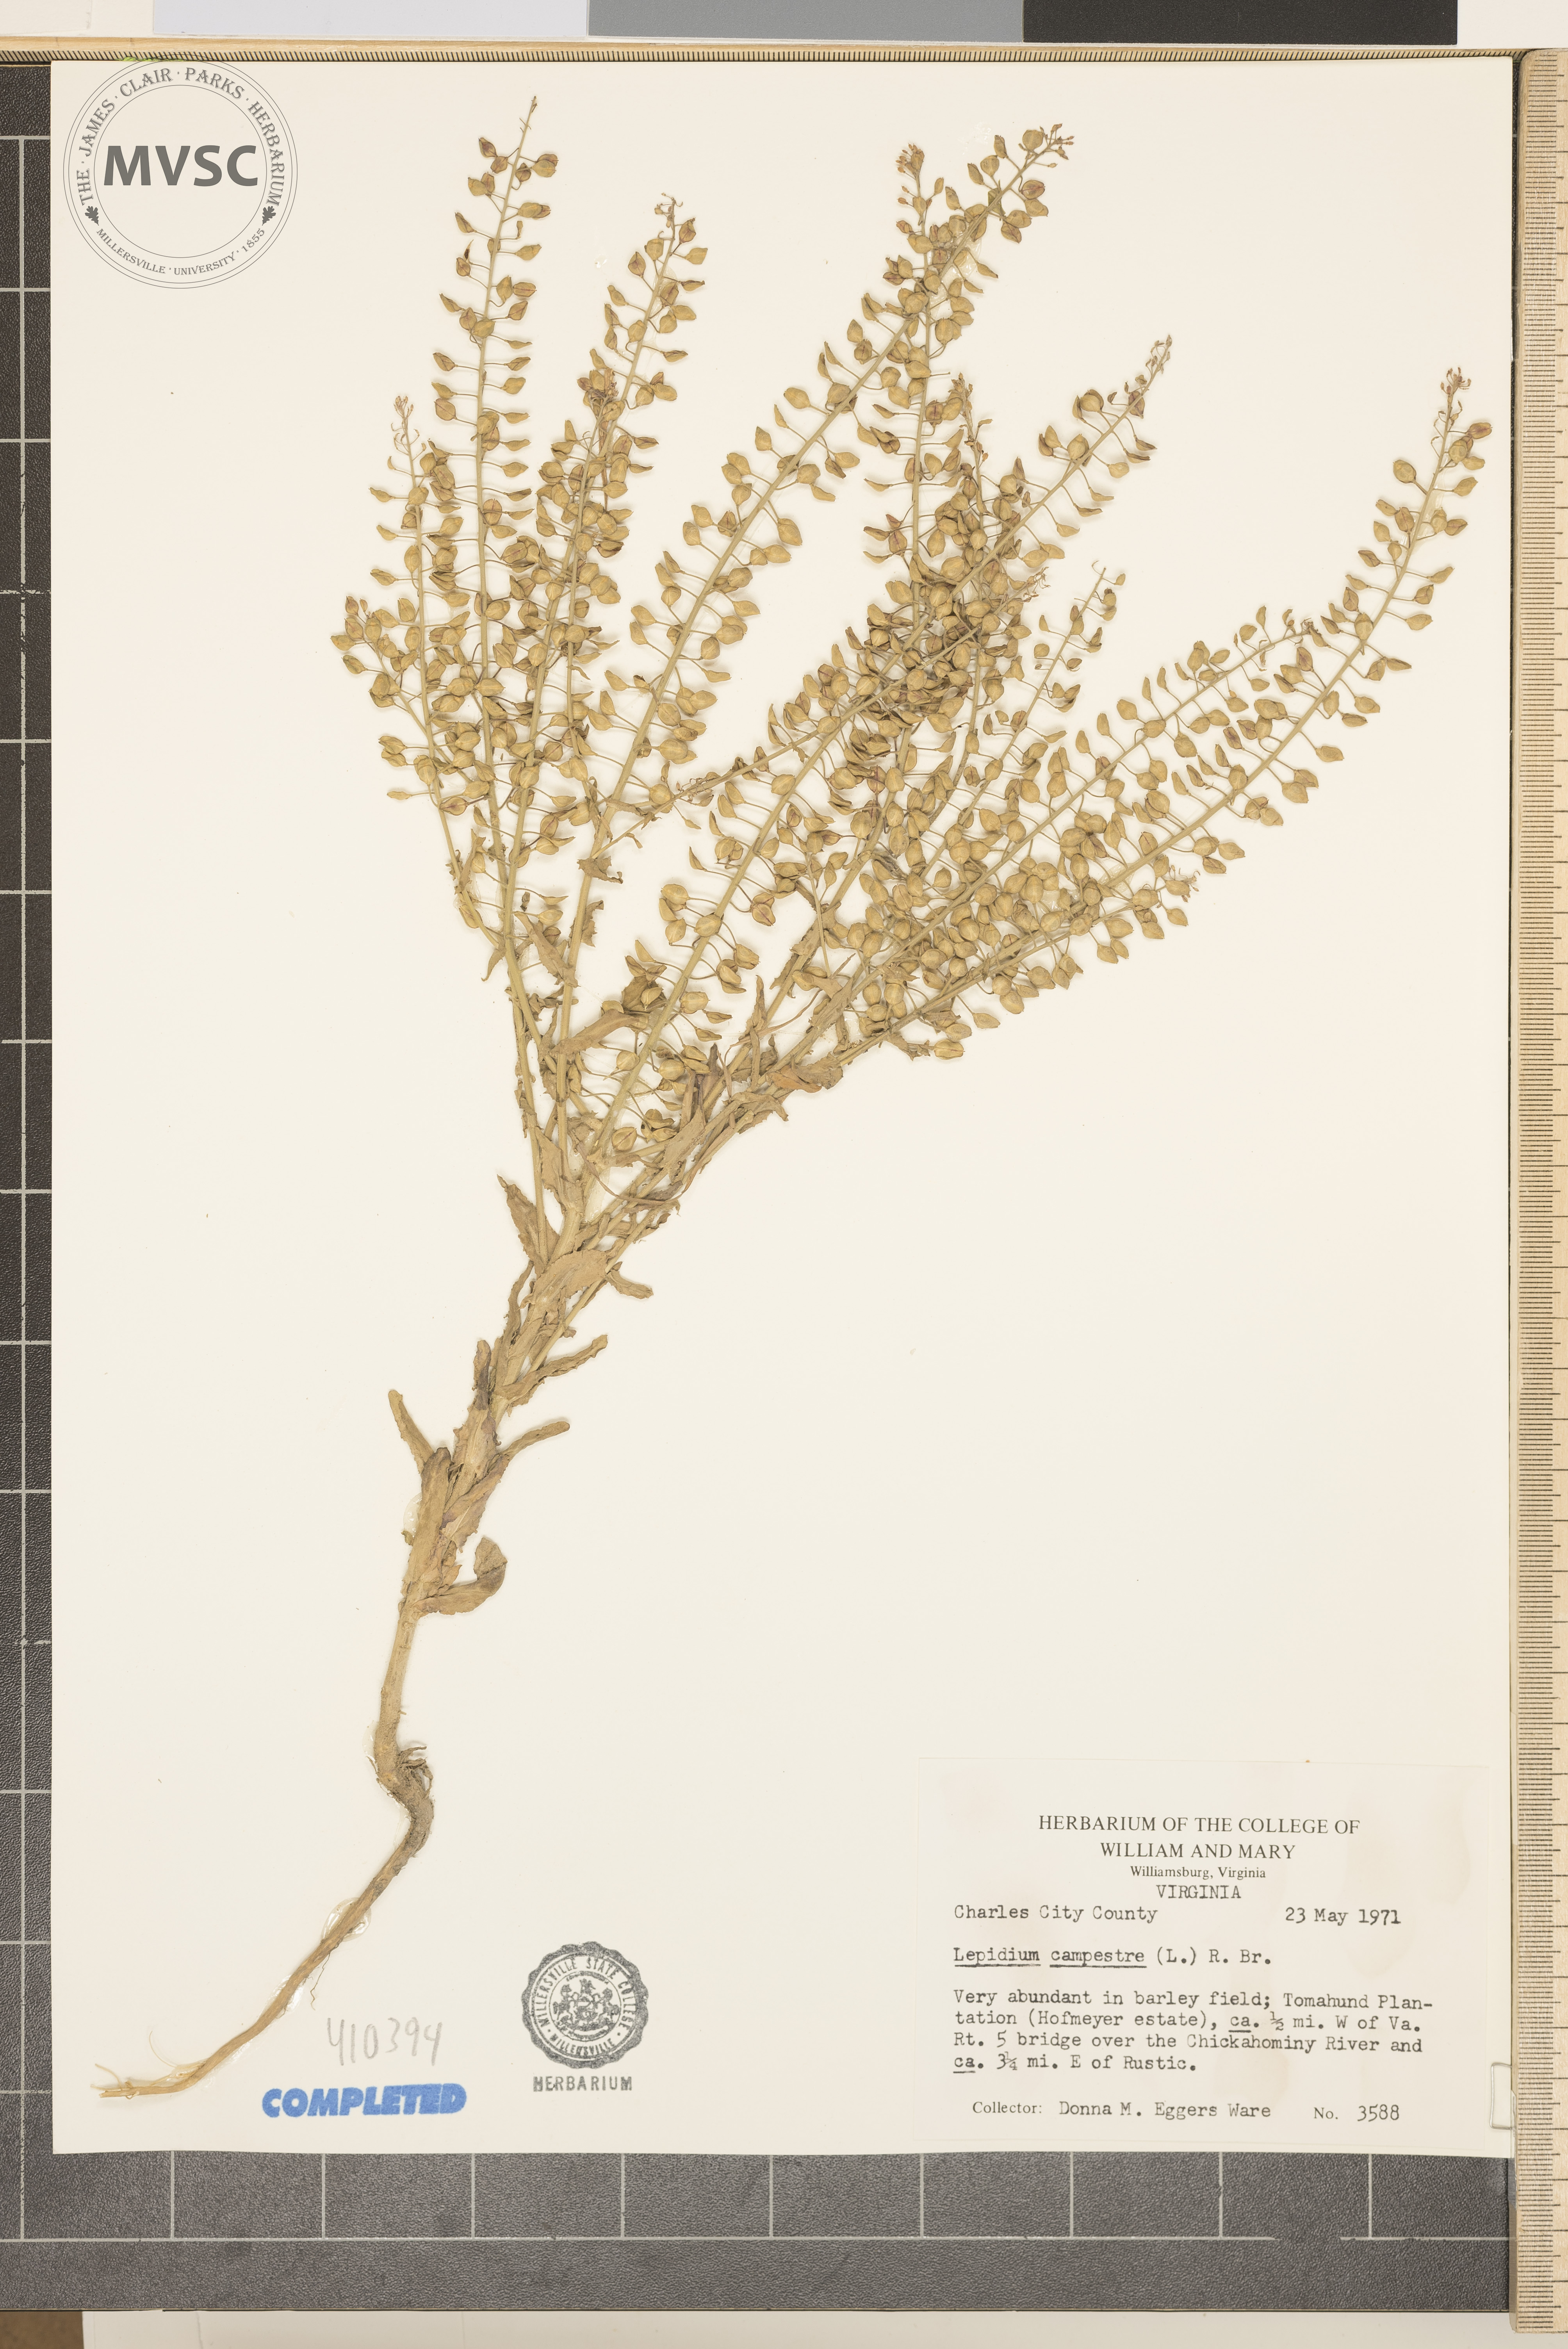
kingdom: Plantae
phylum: Tracheophyta
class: Magnoliopsida
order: Brassicales
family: Brassicaceae
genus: Lepidium
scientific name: Lepidium campestre
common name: field pepperweed
